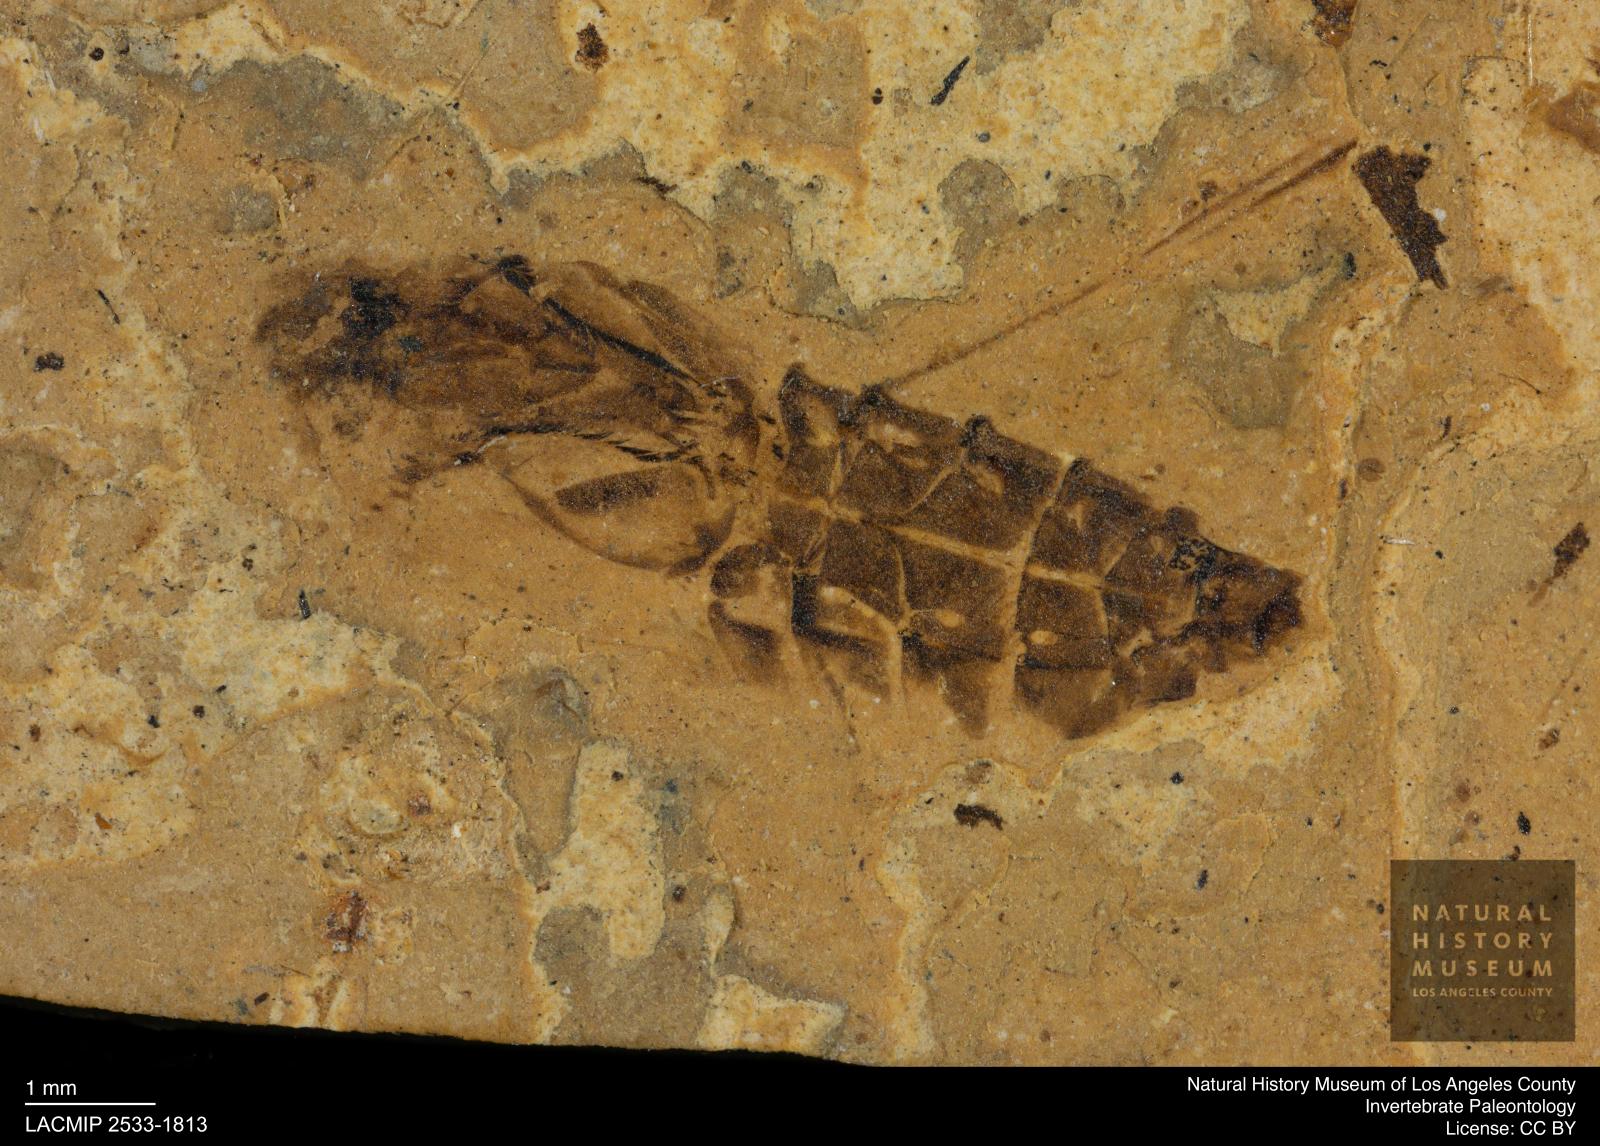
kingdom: Animalia
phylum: Arthropoda
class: Insecta
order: Hemiptera
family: Notonectidae
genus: Notonecta
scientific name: Notonecta
